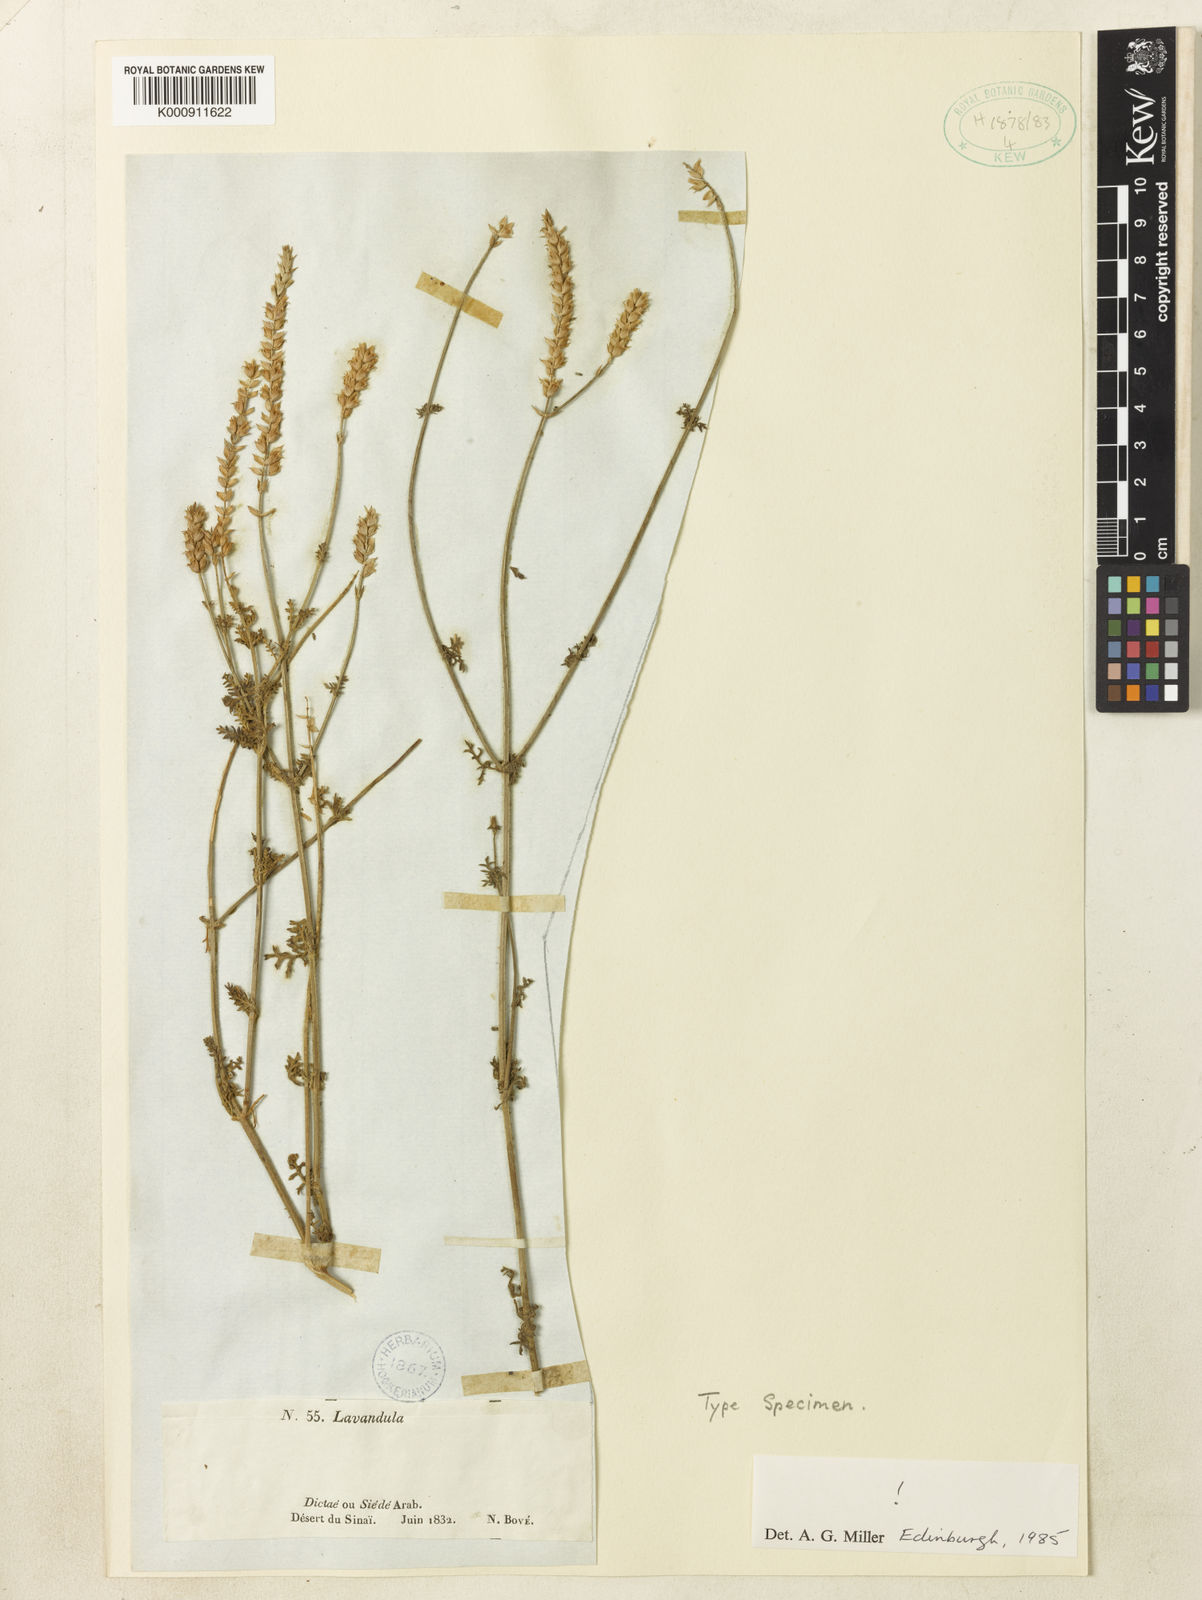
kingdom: Plantae
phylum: Tracheophyta
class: Magnoliopsida
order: Lamiales
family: Lamiaceae
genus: Lavandula
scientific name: Lavandula pubescens
